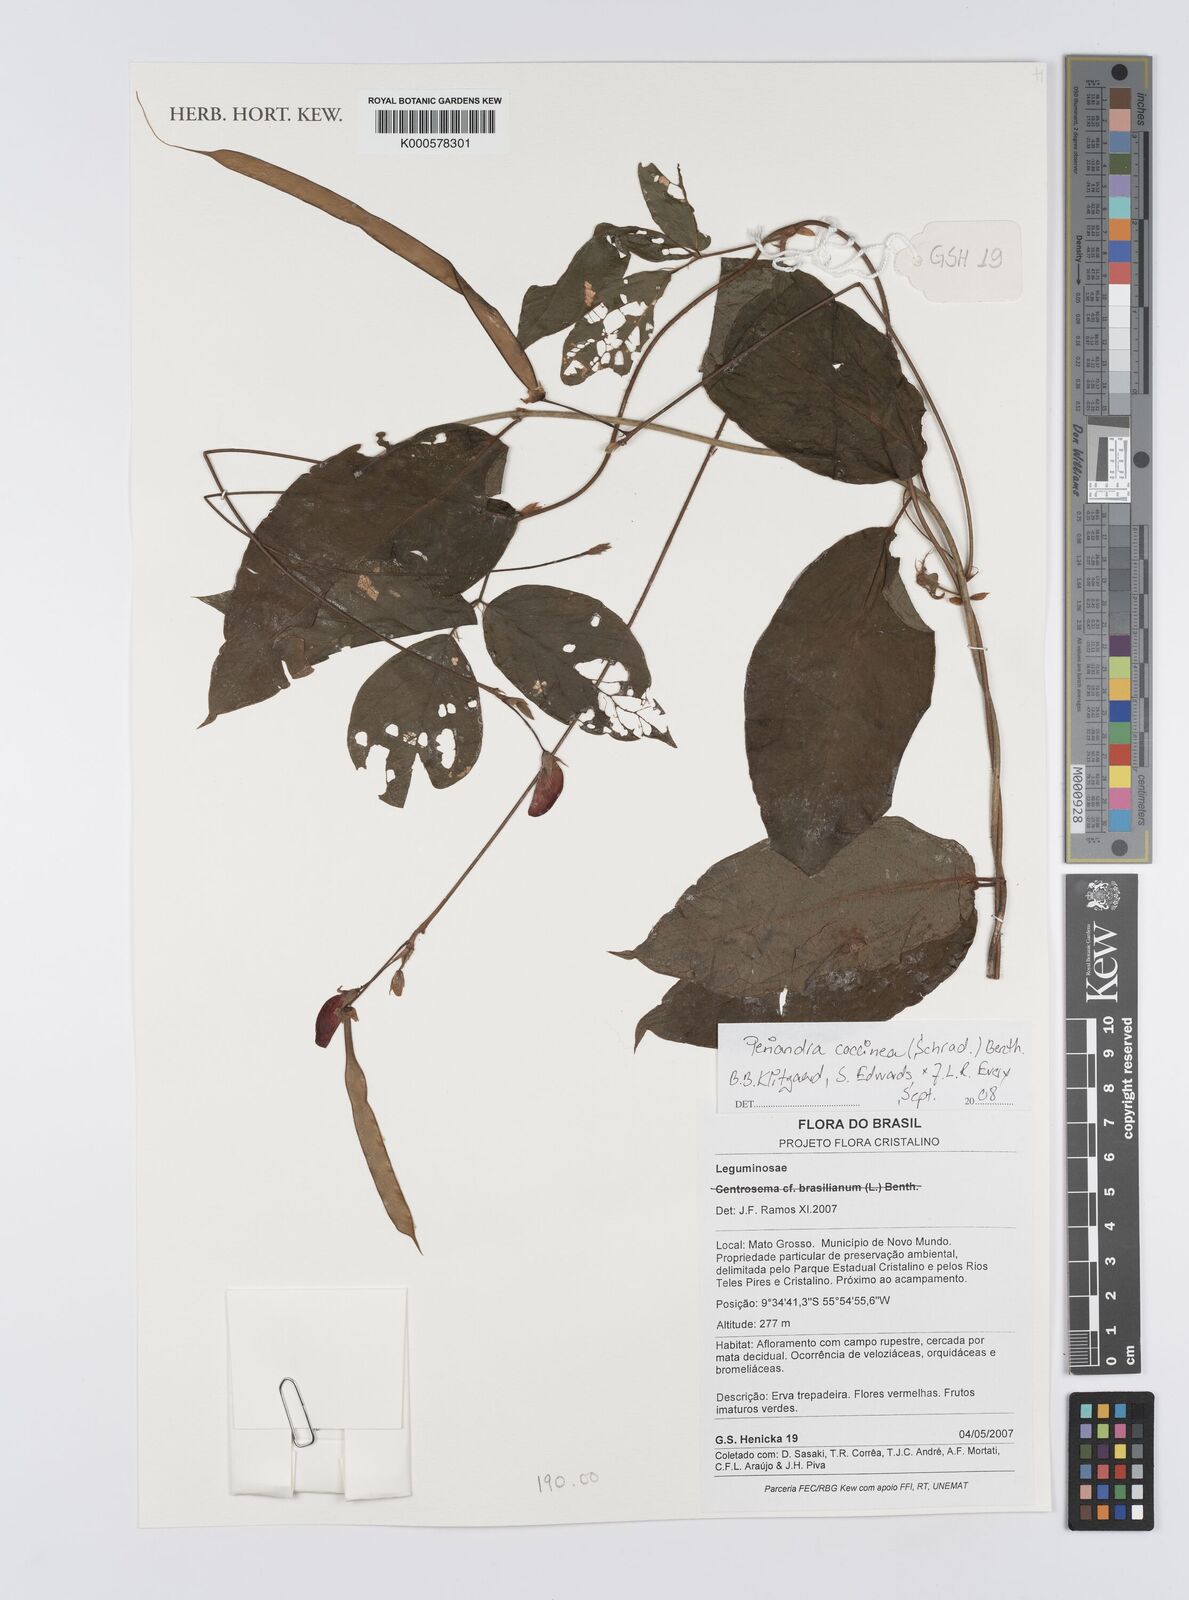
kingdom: Plantae
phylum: Tracheophyta
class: Magnoliopsida
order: Fabales
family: Fabaceae
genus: Periandra
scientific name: Periandra coccinea
